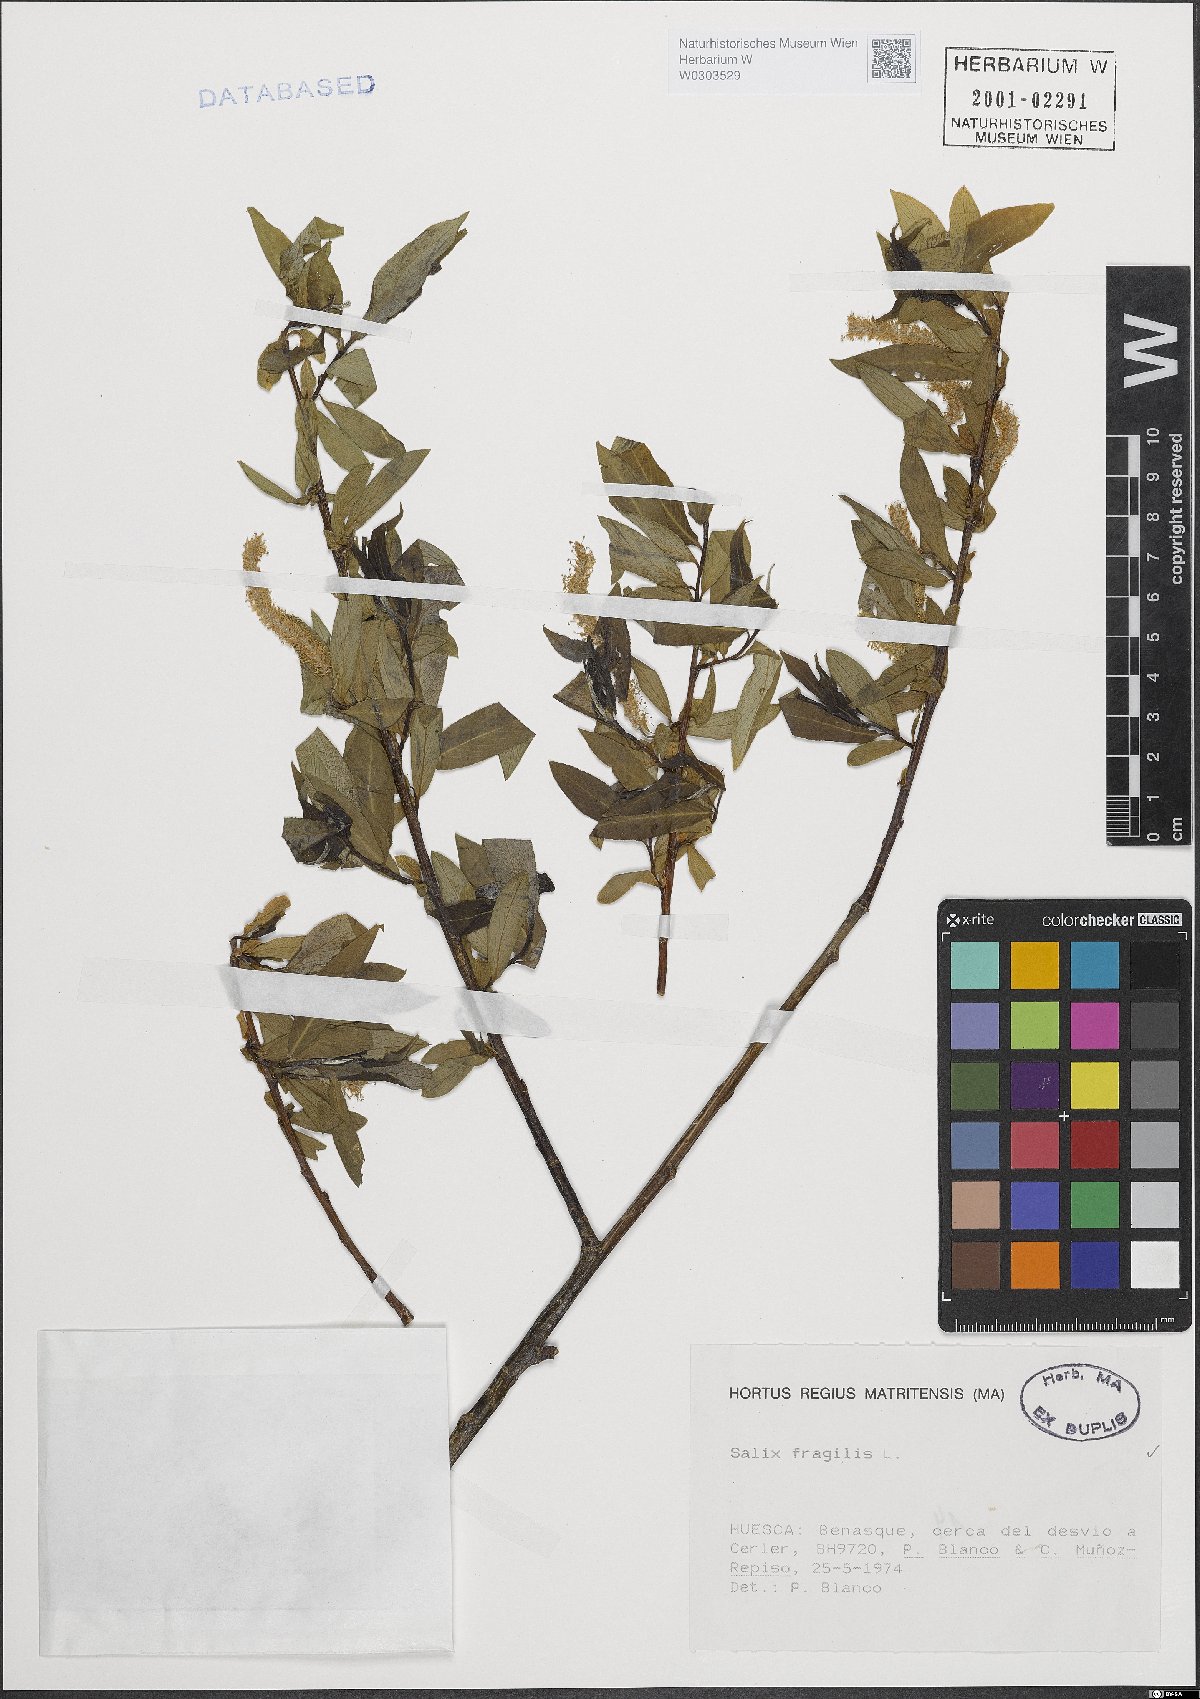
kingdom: Plantae
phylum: Tracheophyta
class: Magnoliopsida
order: Malpighiales
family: Salicaceae
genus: Salix
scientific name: Salix fragilis
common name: Crack willow
